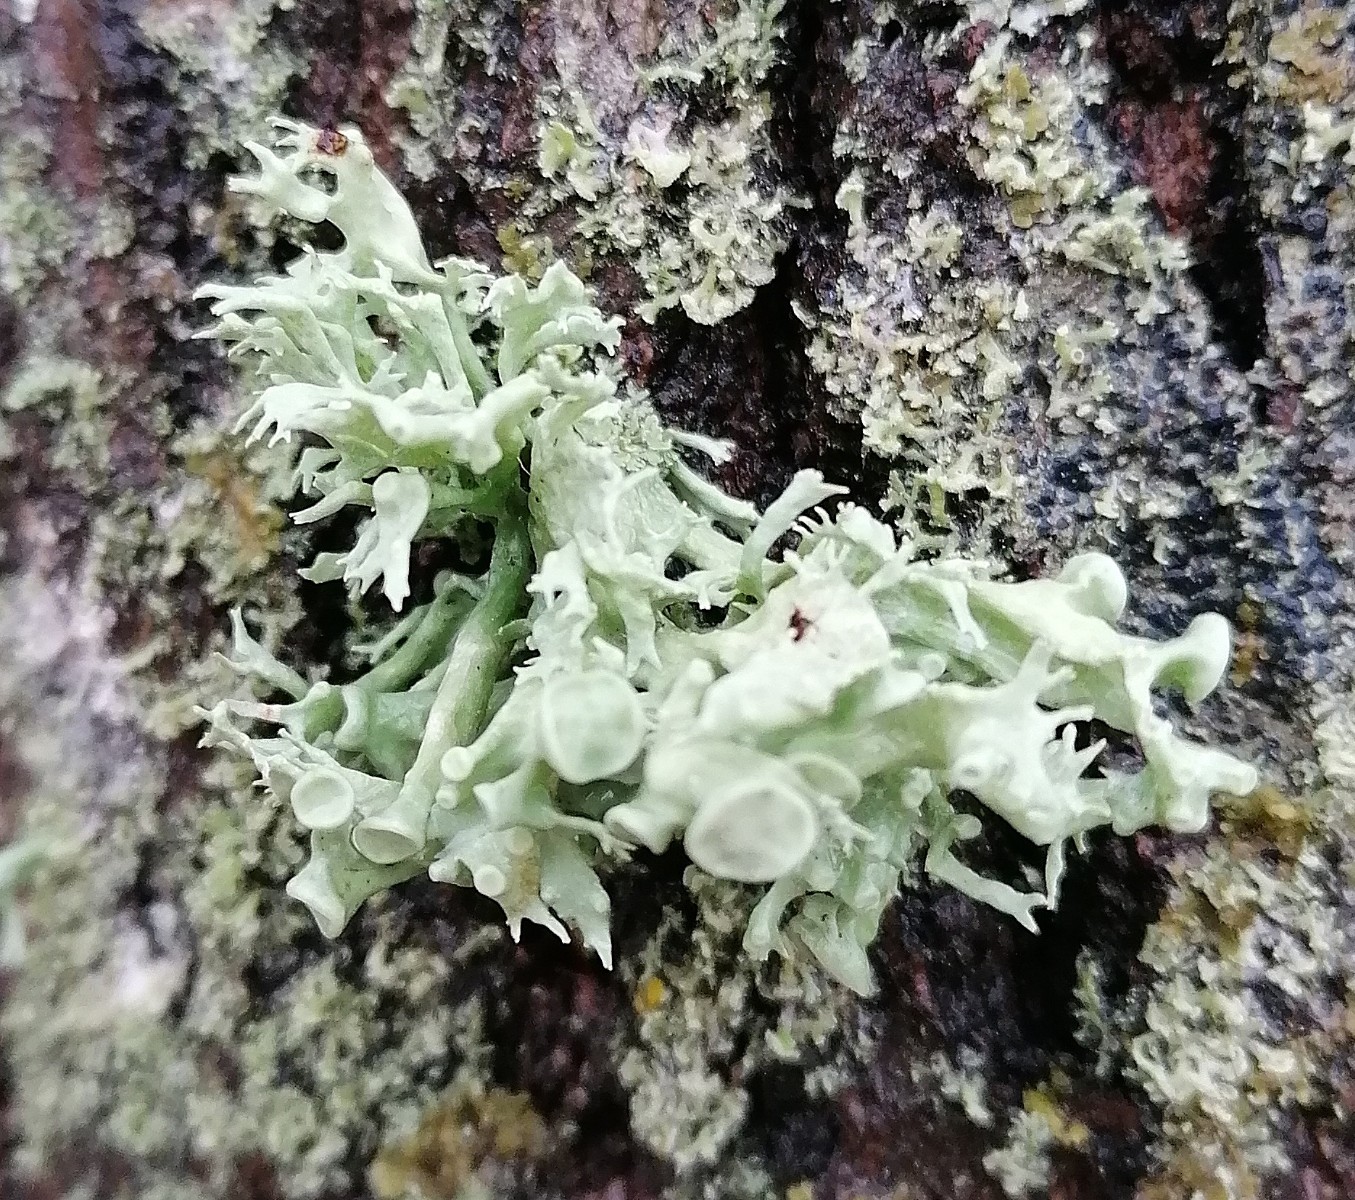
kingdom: Fungi
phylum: Ascomycota
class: Lecanoromycetes
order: Lecanorales
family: Ramalinaceae
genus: Ramalina
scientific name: Ramalina fastigiata
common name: tue-grenlav
